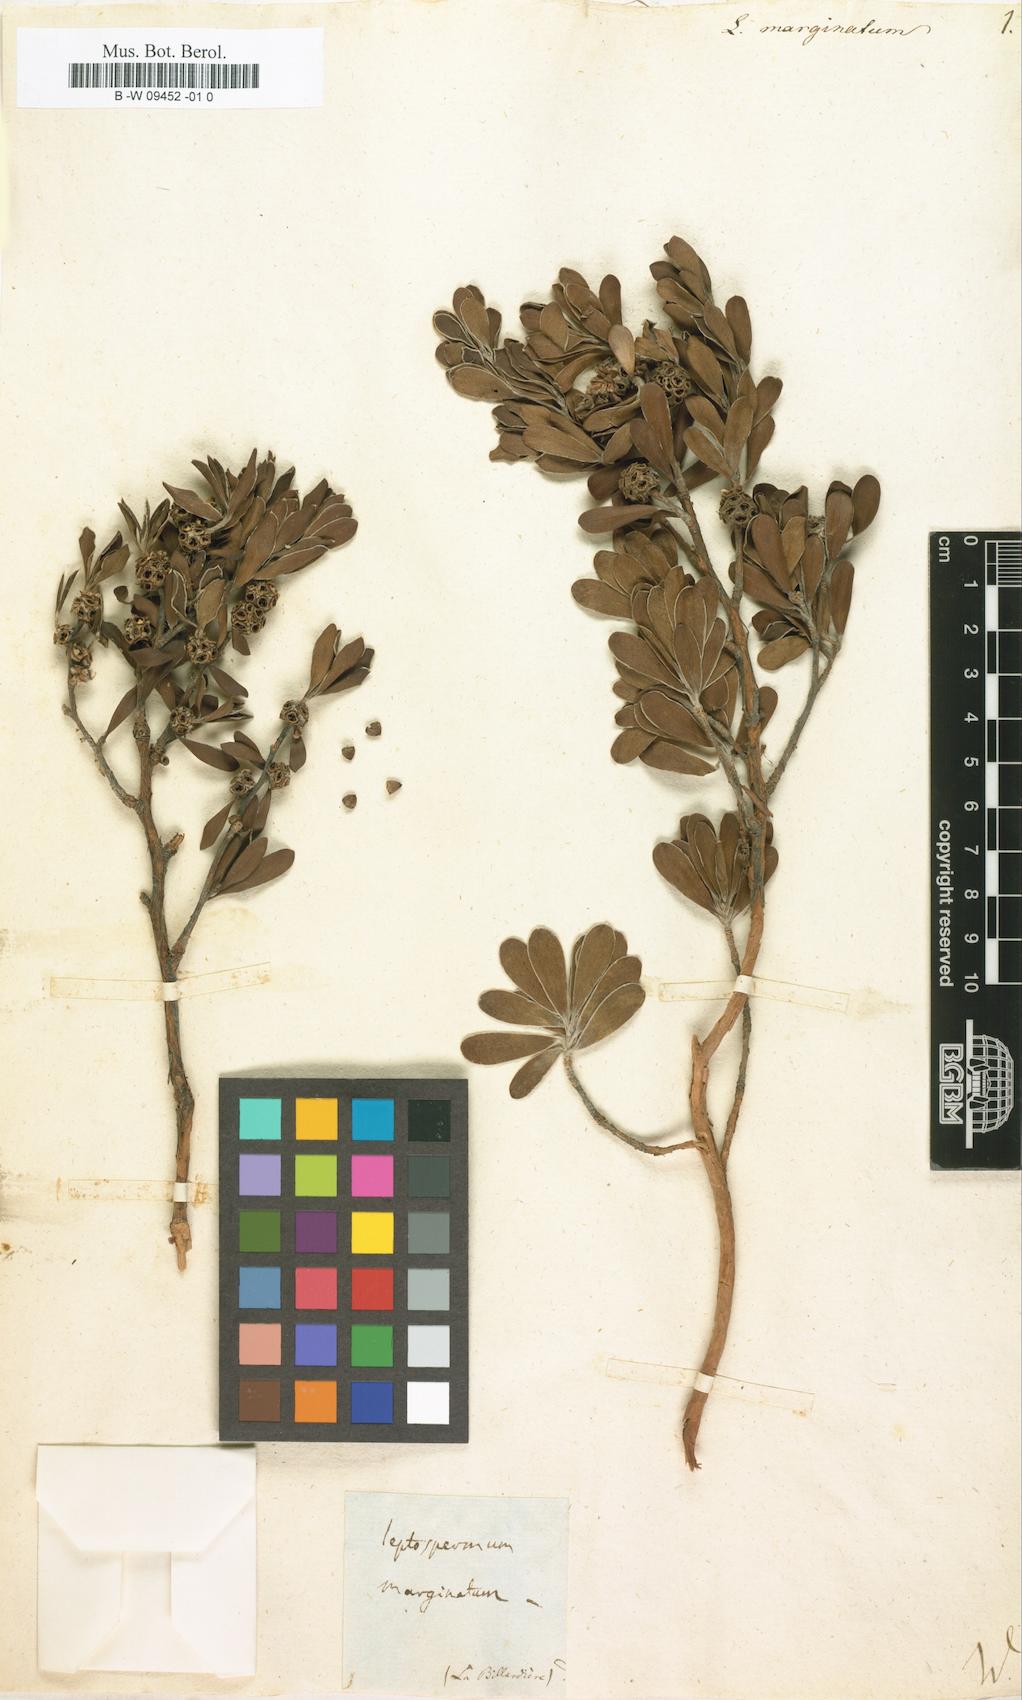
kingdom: Plantae
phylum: Tracheophyta
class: Magnoliopsida
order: Myrtales
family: Myrtaceae
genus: Taxandria
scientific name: Taxandria marginata
